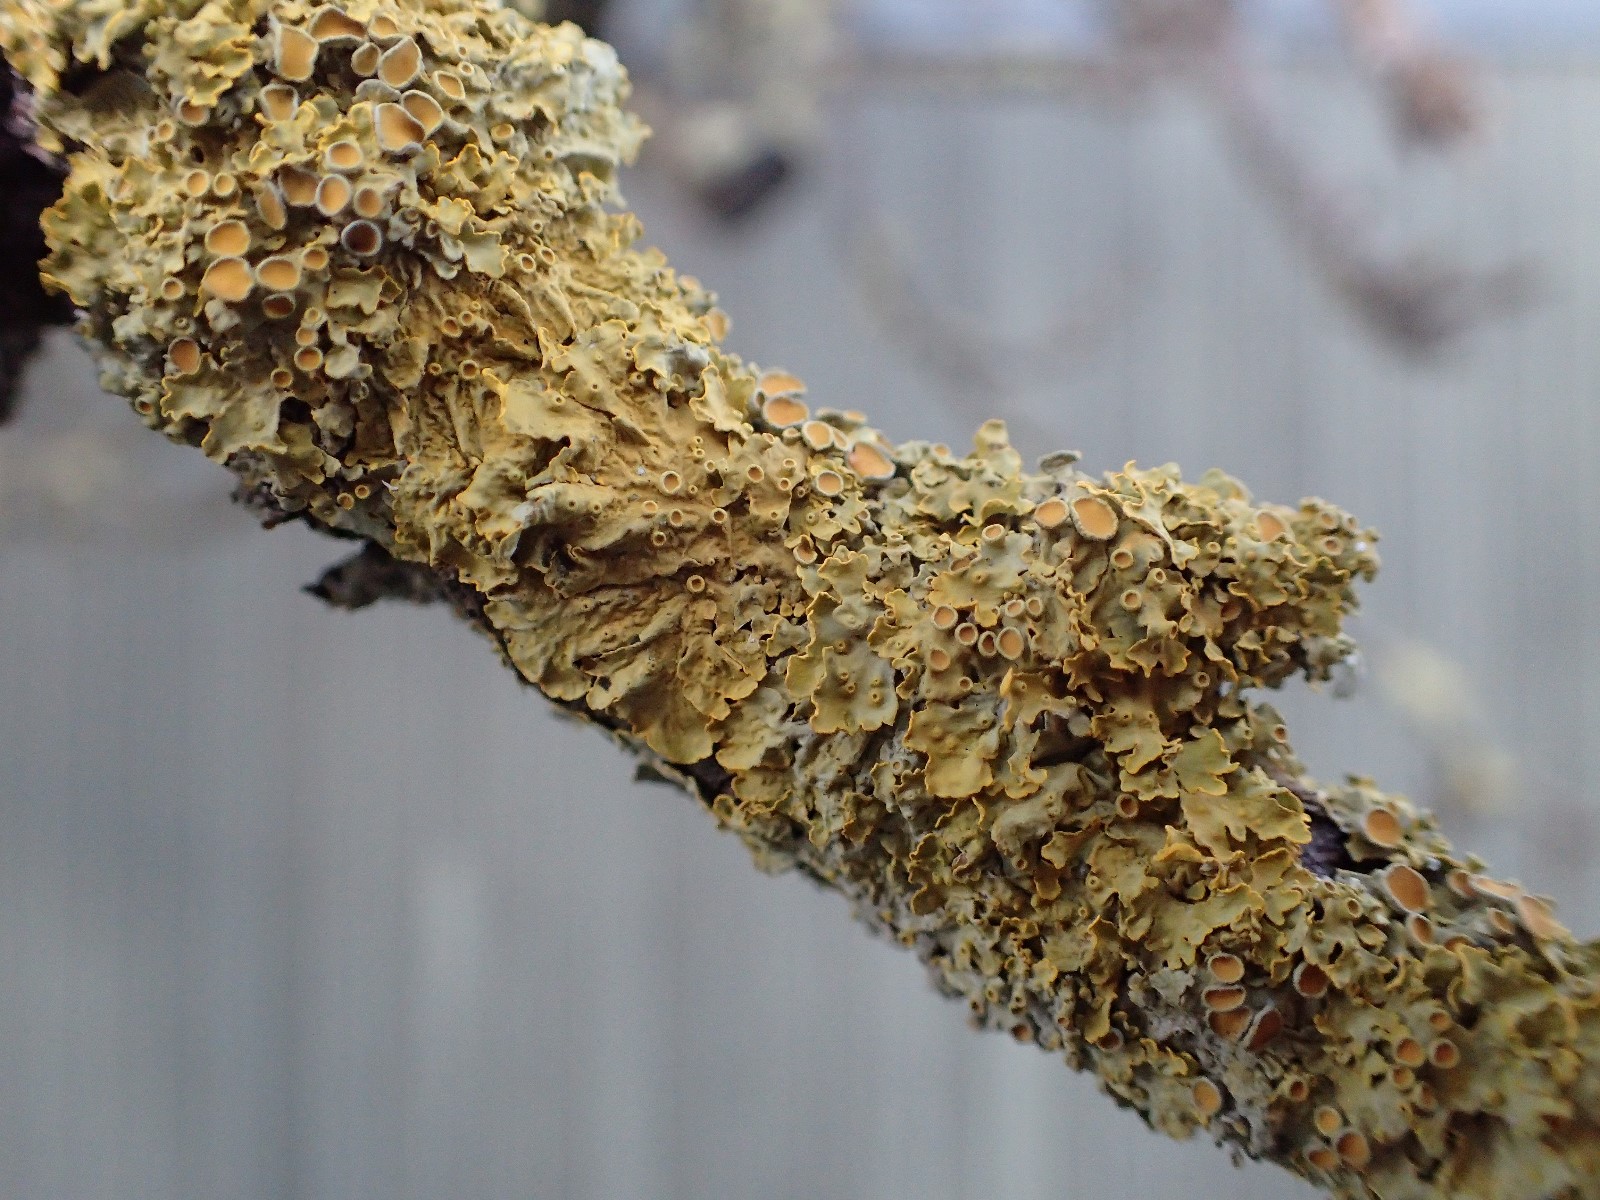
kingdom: Fungi
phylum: Ascomycota
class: Lecanoromycetes
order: Teloschistales
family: Teloschistaceae
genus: Xanthoria
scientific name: Xanthoria parietina
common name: almindelig væggelav
